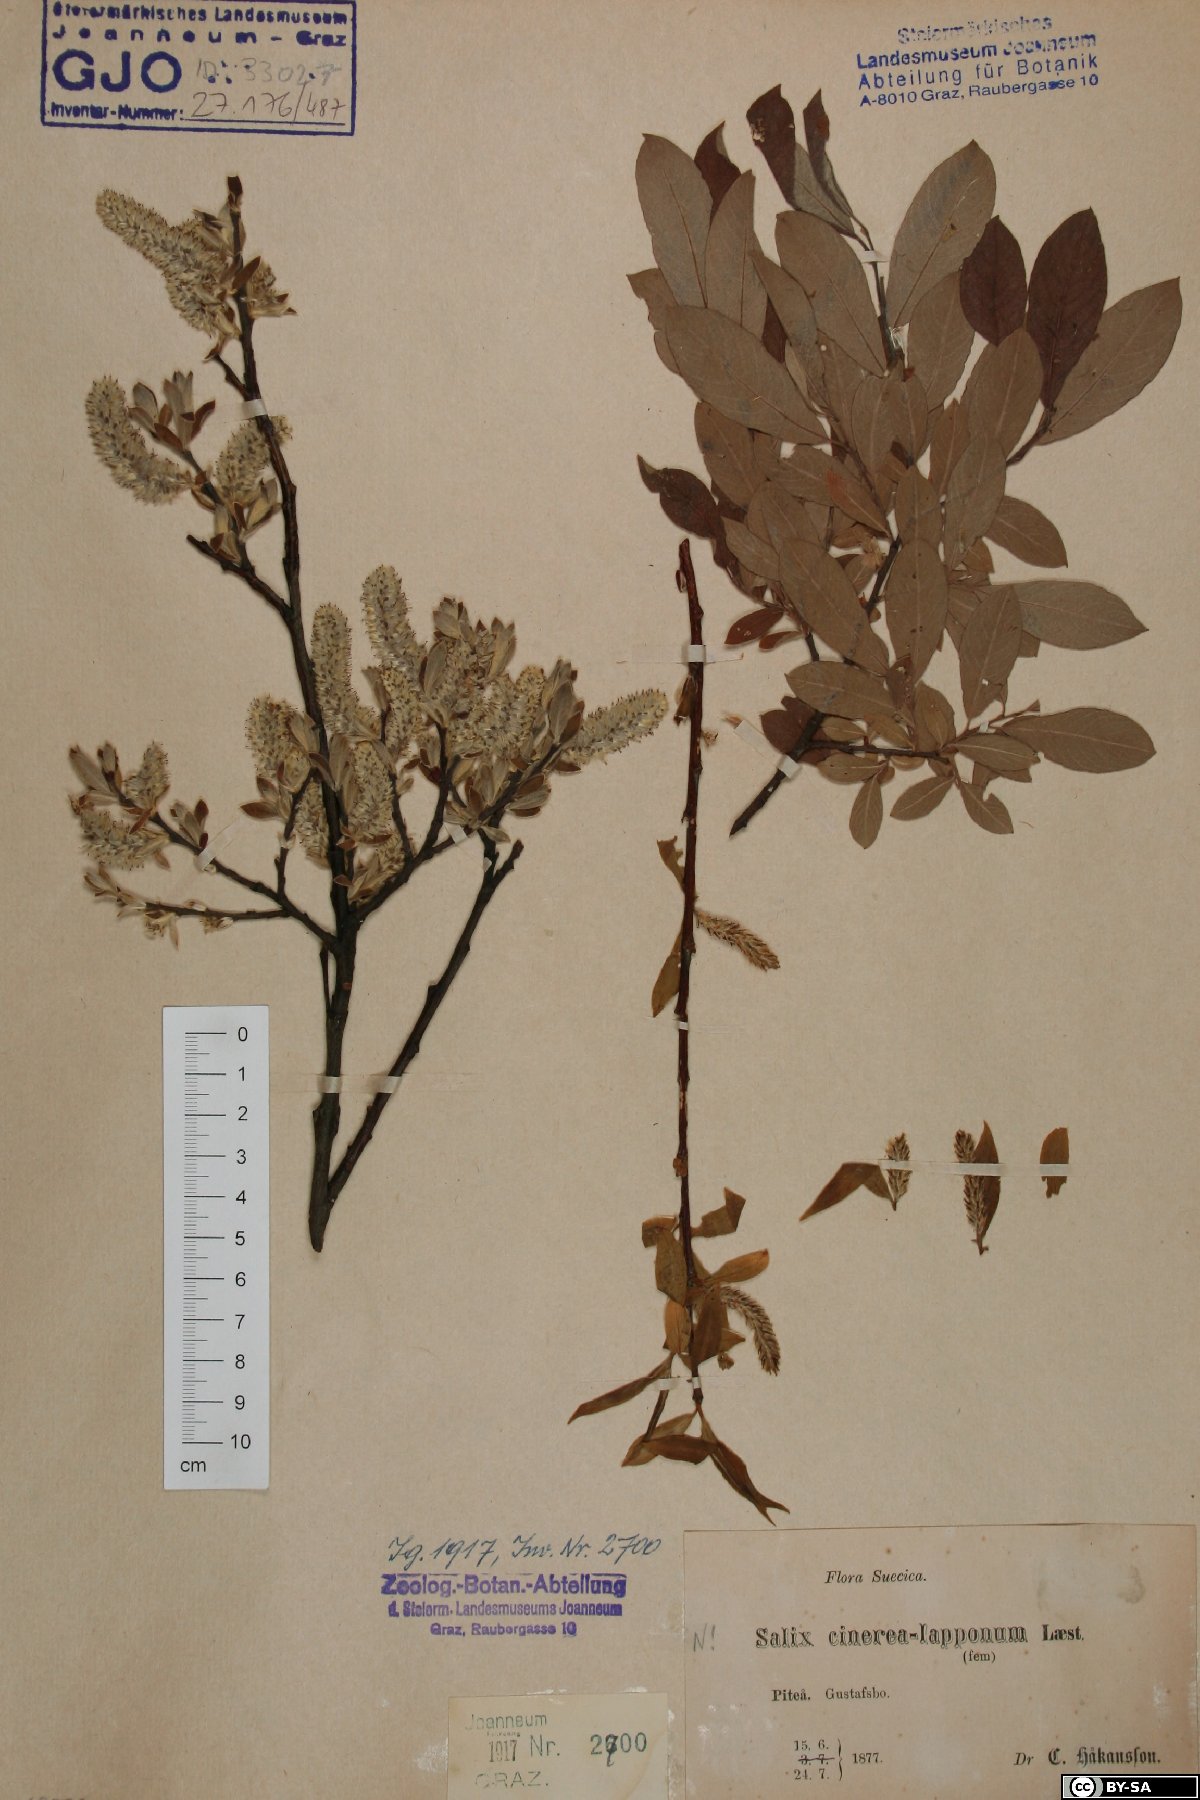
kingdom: Plantae
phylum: Tracheophyta
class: Magnoliopsida
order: Malpighiales
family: Salicaceae
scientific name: Salicaceae
